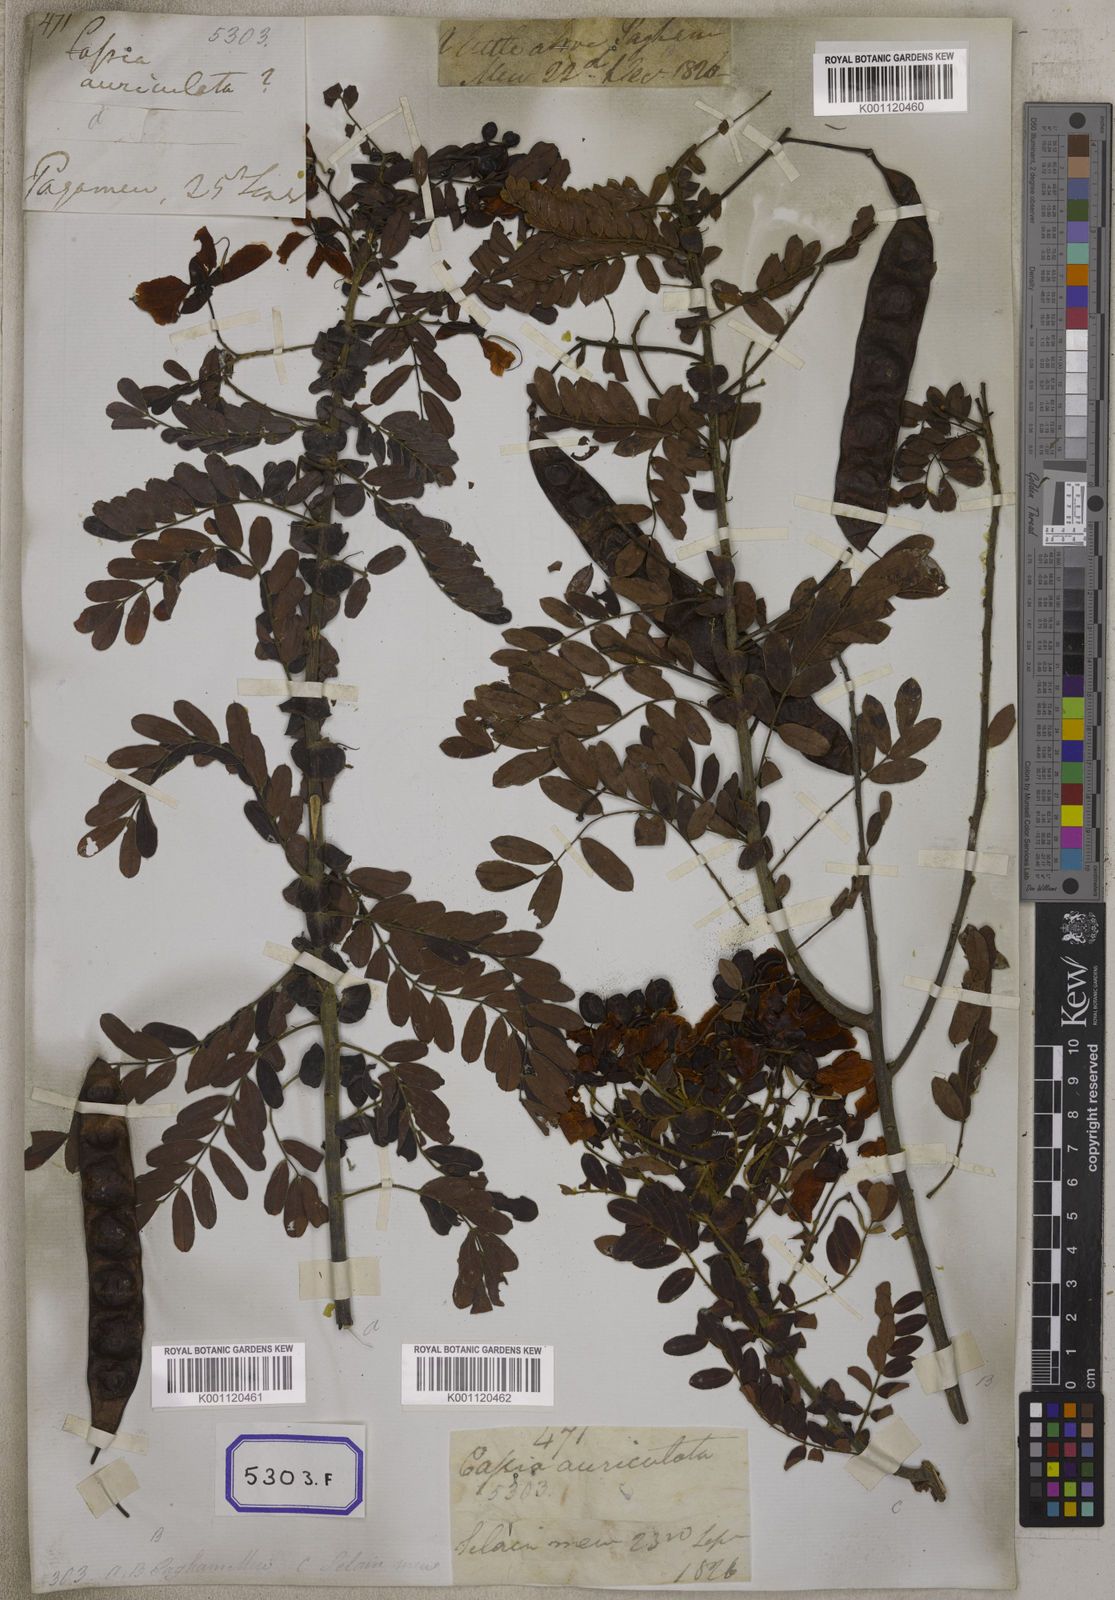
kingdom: Plantae
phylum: Tracheophyta
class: Magnoliopsida
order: Fabales
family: Fabaceae
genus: Senna
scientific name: Senna auriculata
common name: Tanner's cassia
